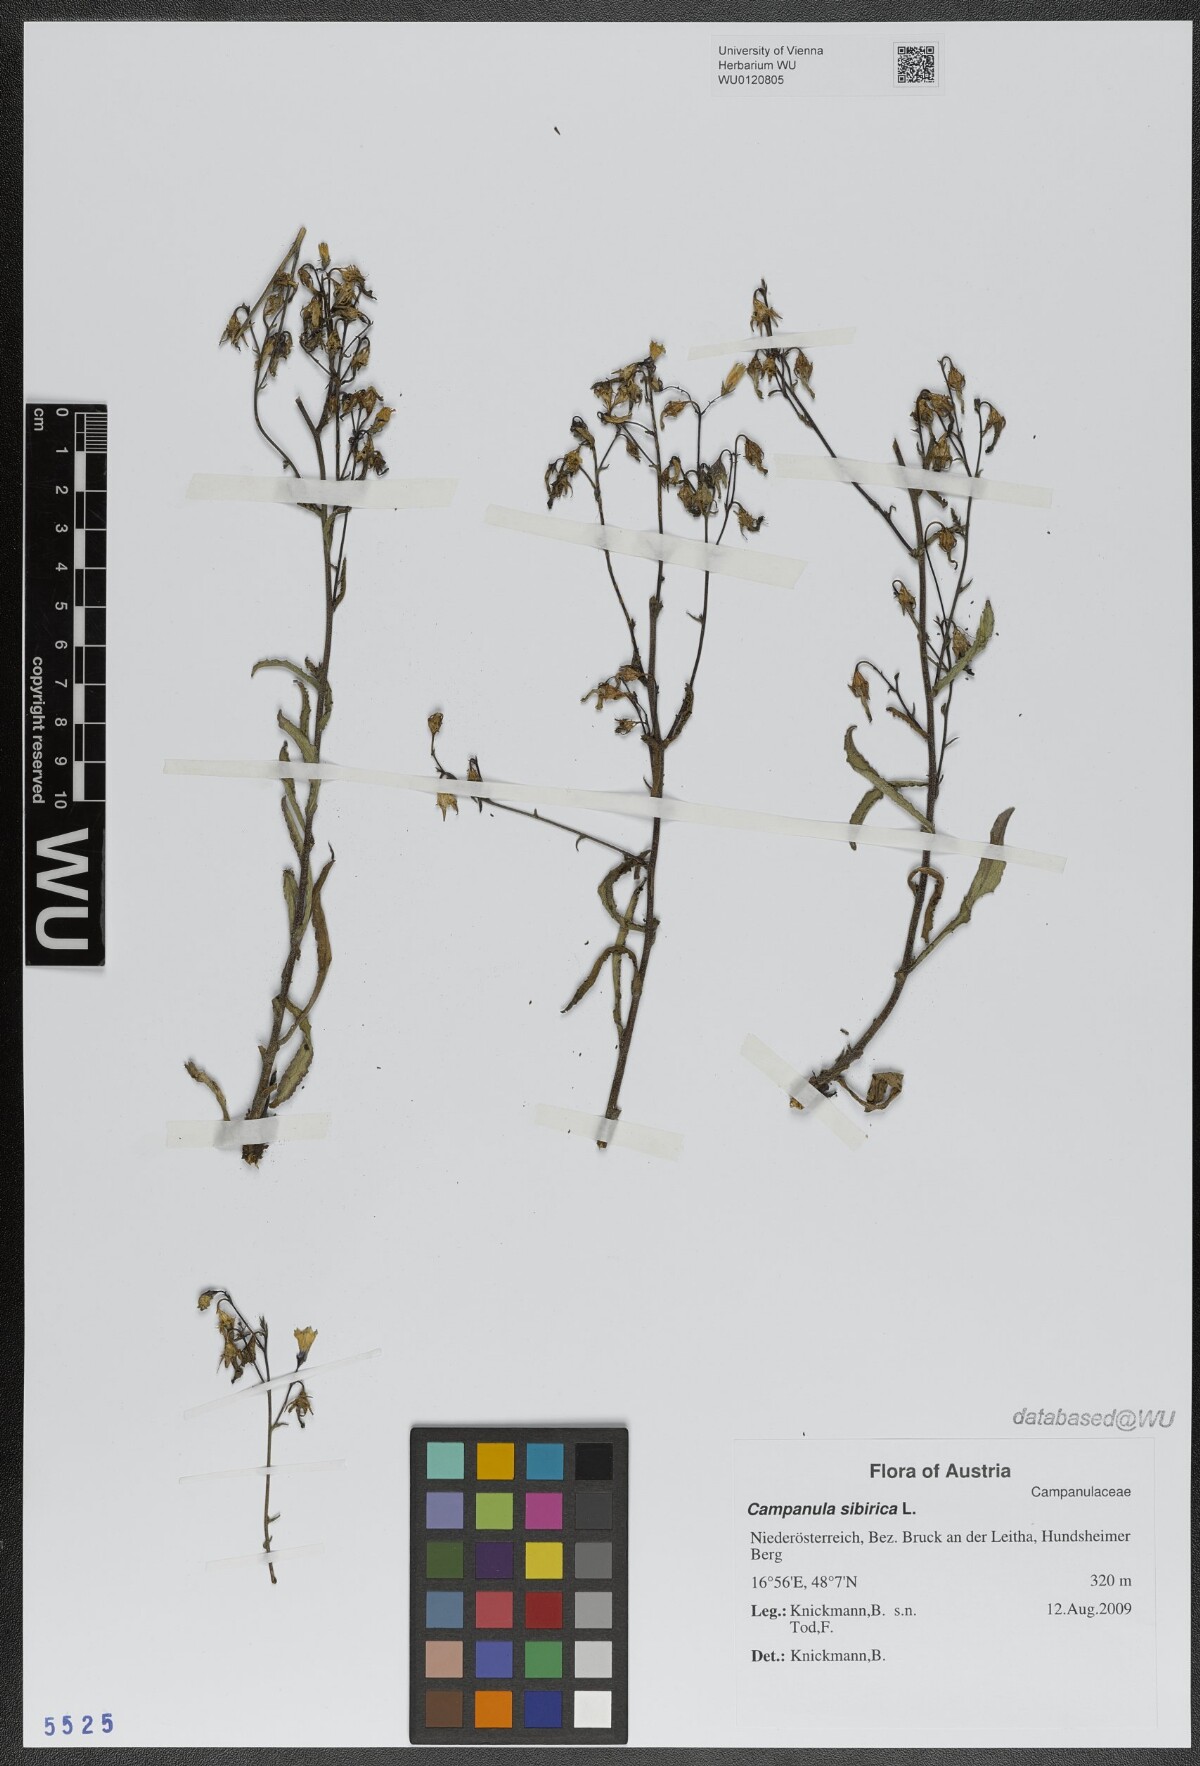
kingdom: Plantae
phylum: Tracheophyta
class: Magnoliopsida
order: Asterales
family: Campanulaceae
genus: Campanula
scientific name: Campanula sibirica
